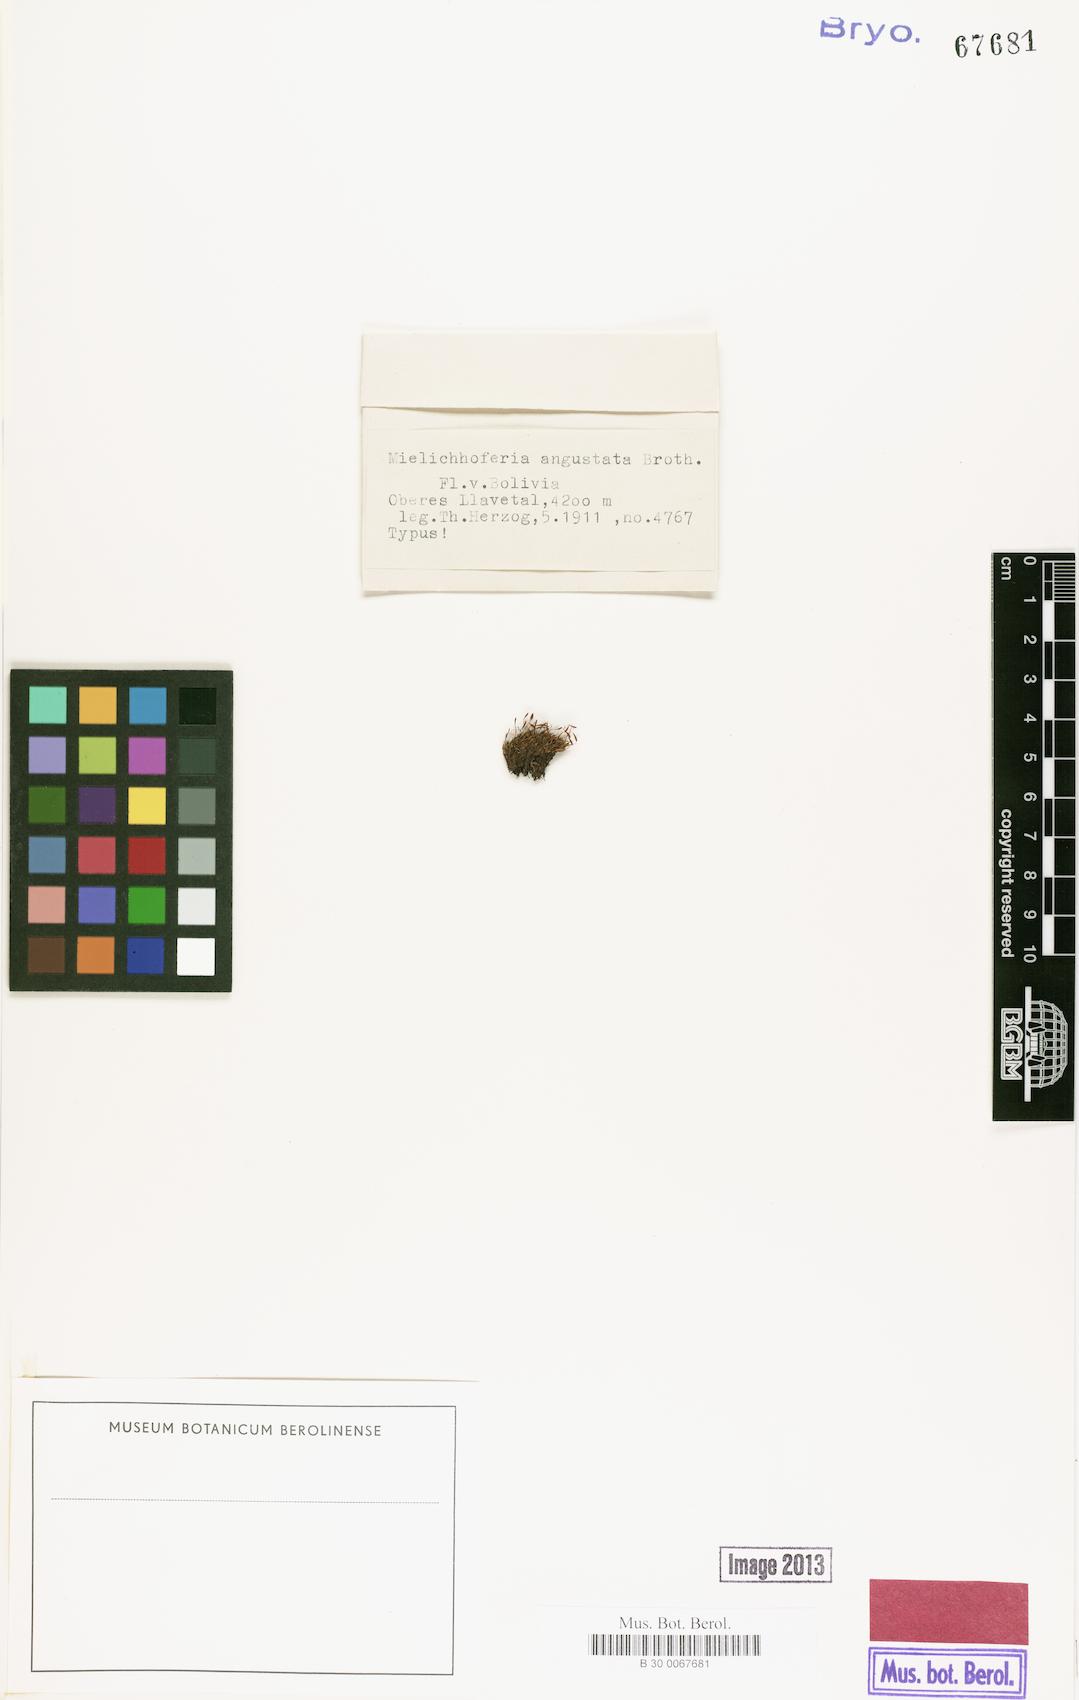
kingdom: Plantae
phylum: Bryophyta
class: Bryopsida
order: Bryales
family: Mniaceae
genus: Schizymenium
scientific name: Schizymenium clavellatum
